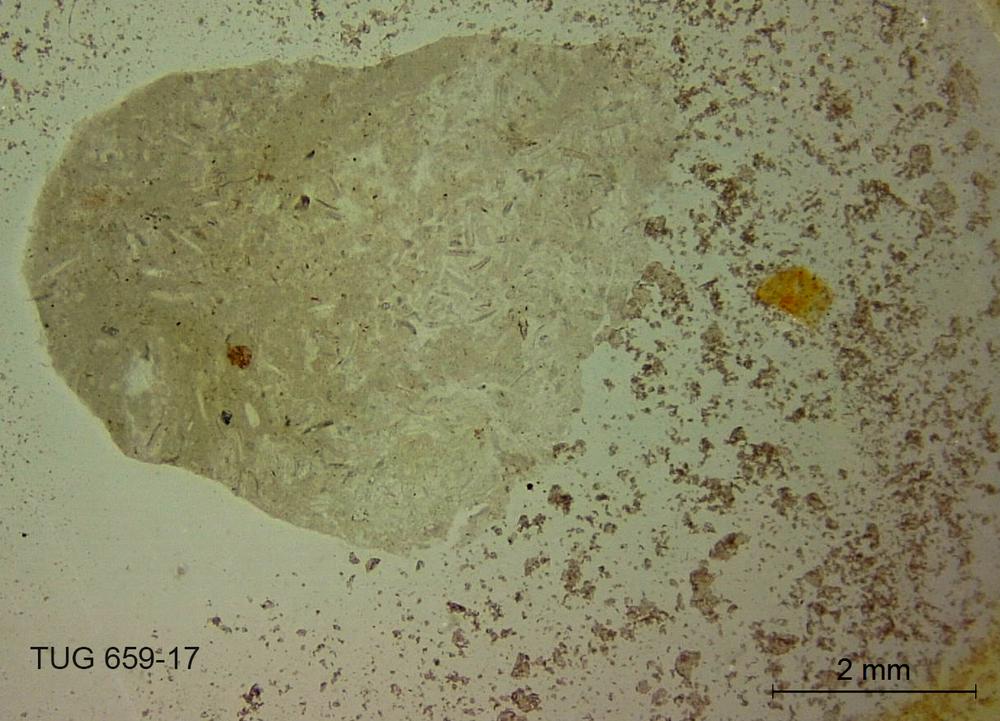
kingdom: Animalia
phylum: Porifera
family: Stromatoporidae
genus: Stromatopora
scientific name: Stromatopora
